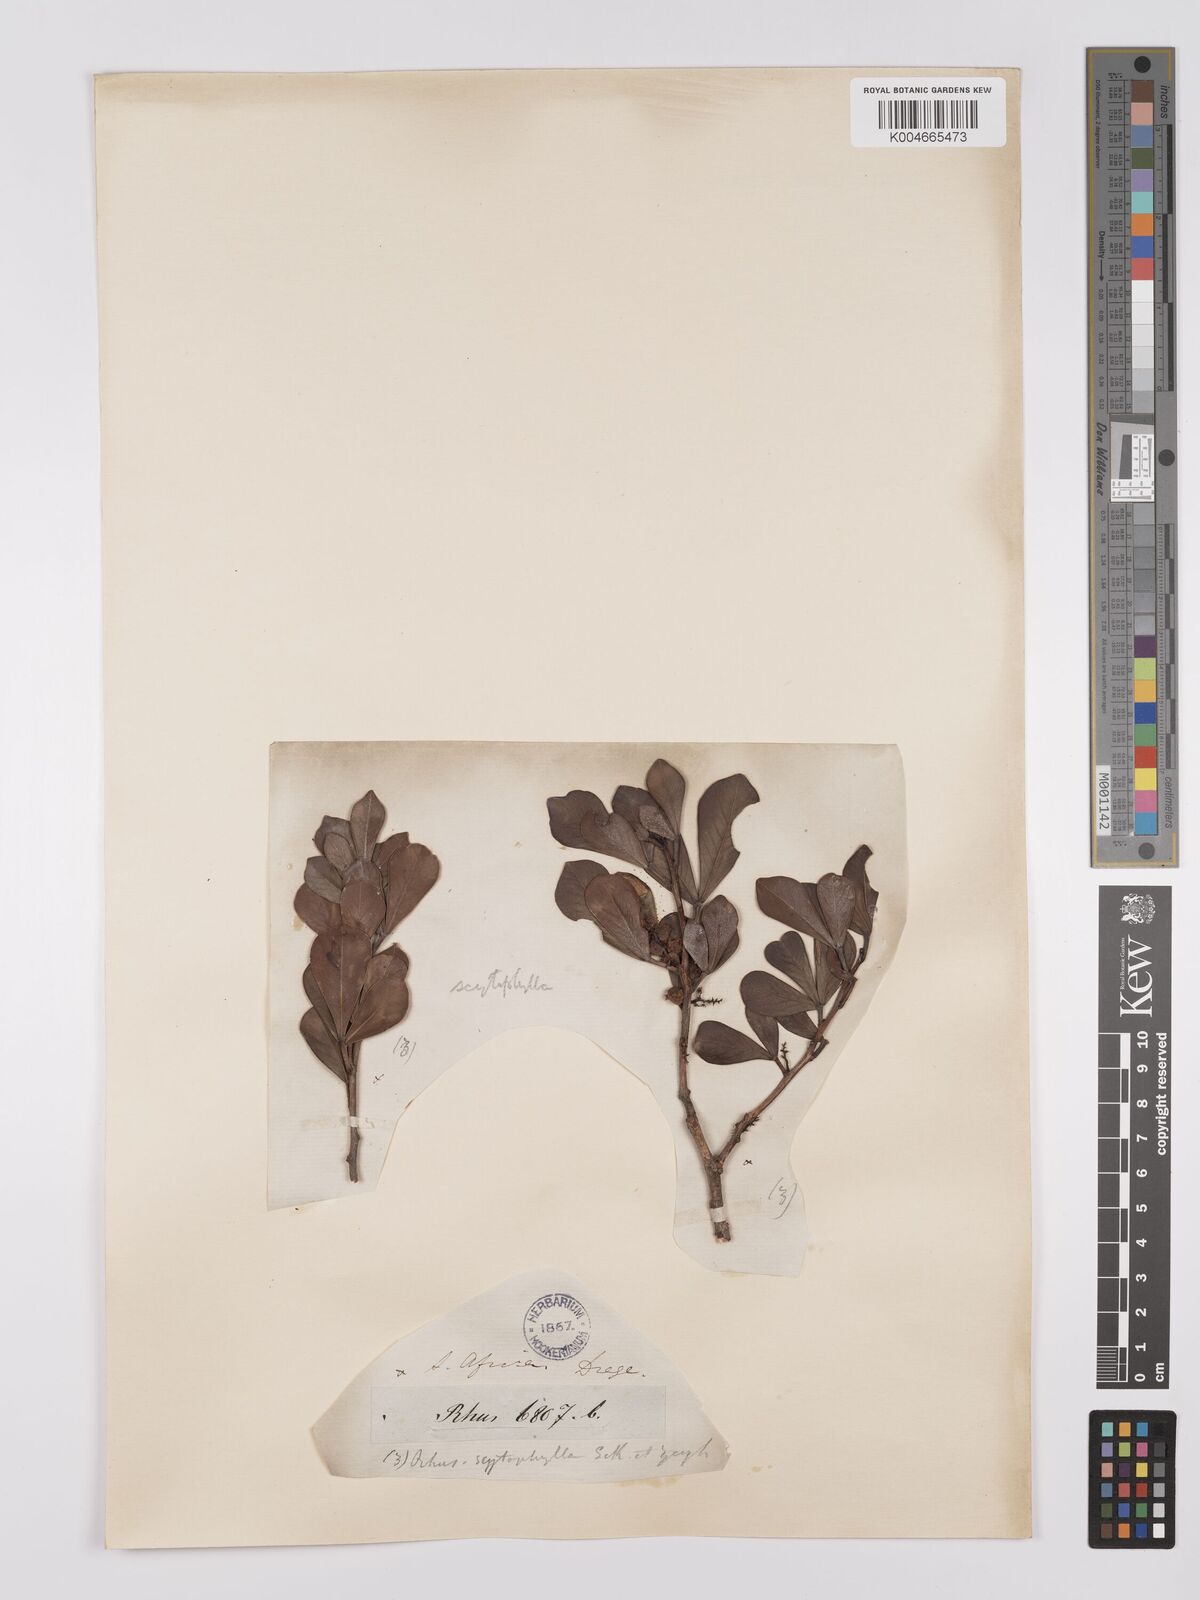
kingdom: Plantae
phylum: Tracheophyta
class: Magnoliopsida
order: Sapindales
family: Anacardiaceae
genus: Searsia
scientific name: Searsia scytophylla
